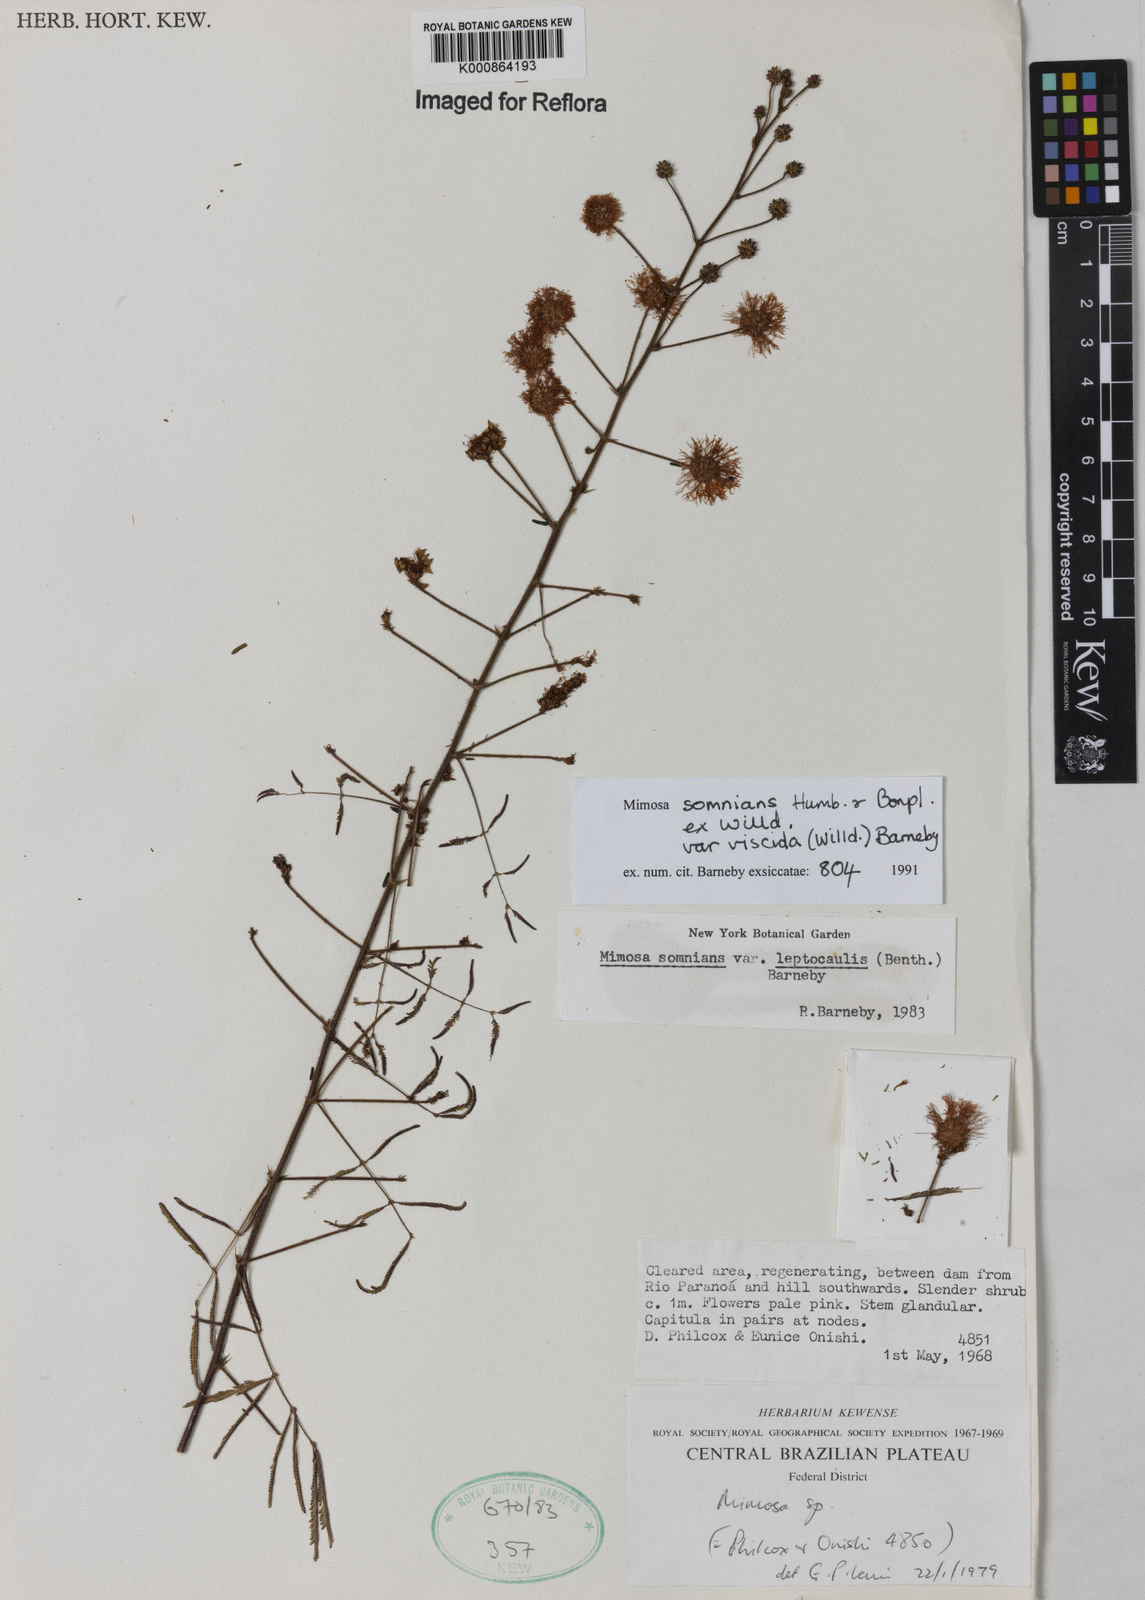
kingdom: Plantae
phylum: Tracheophyta
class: Magnoliopsida
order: Fabales
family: Fabaceae
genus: Mimosa
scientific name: Mimosa somnians
